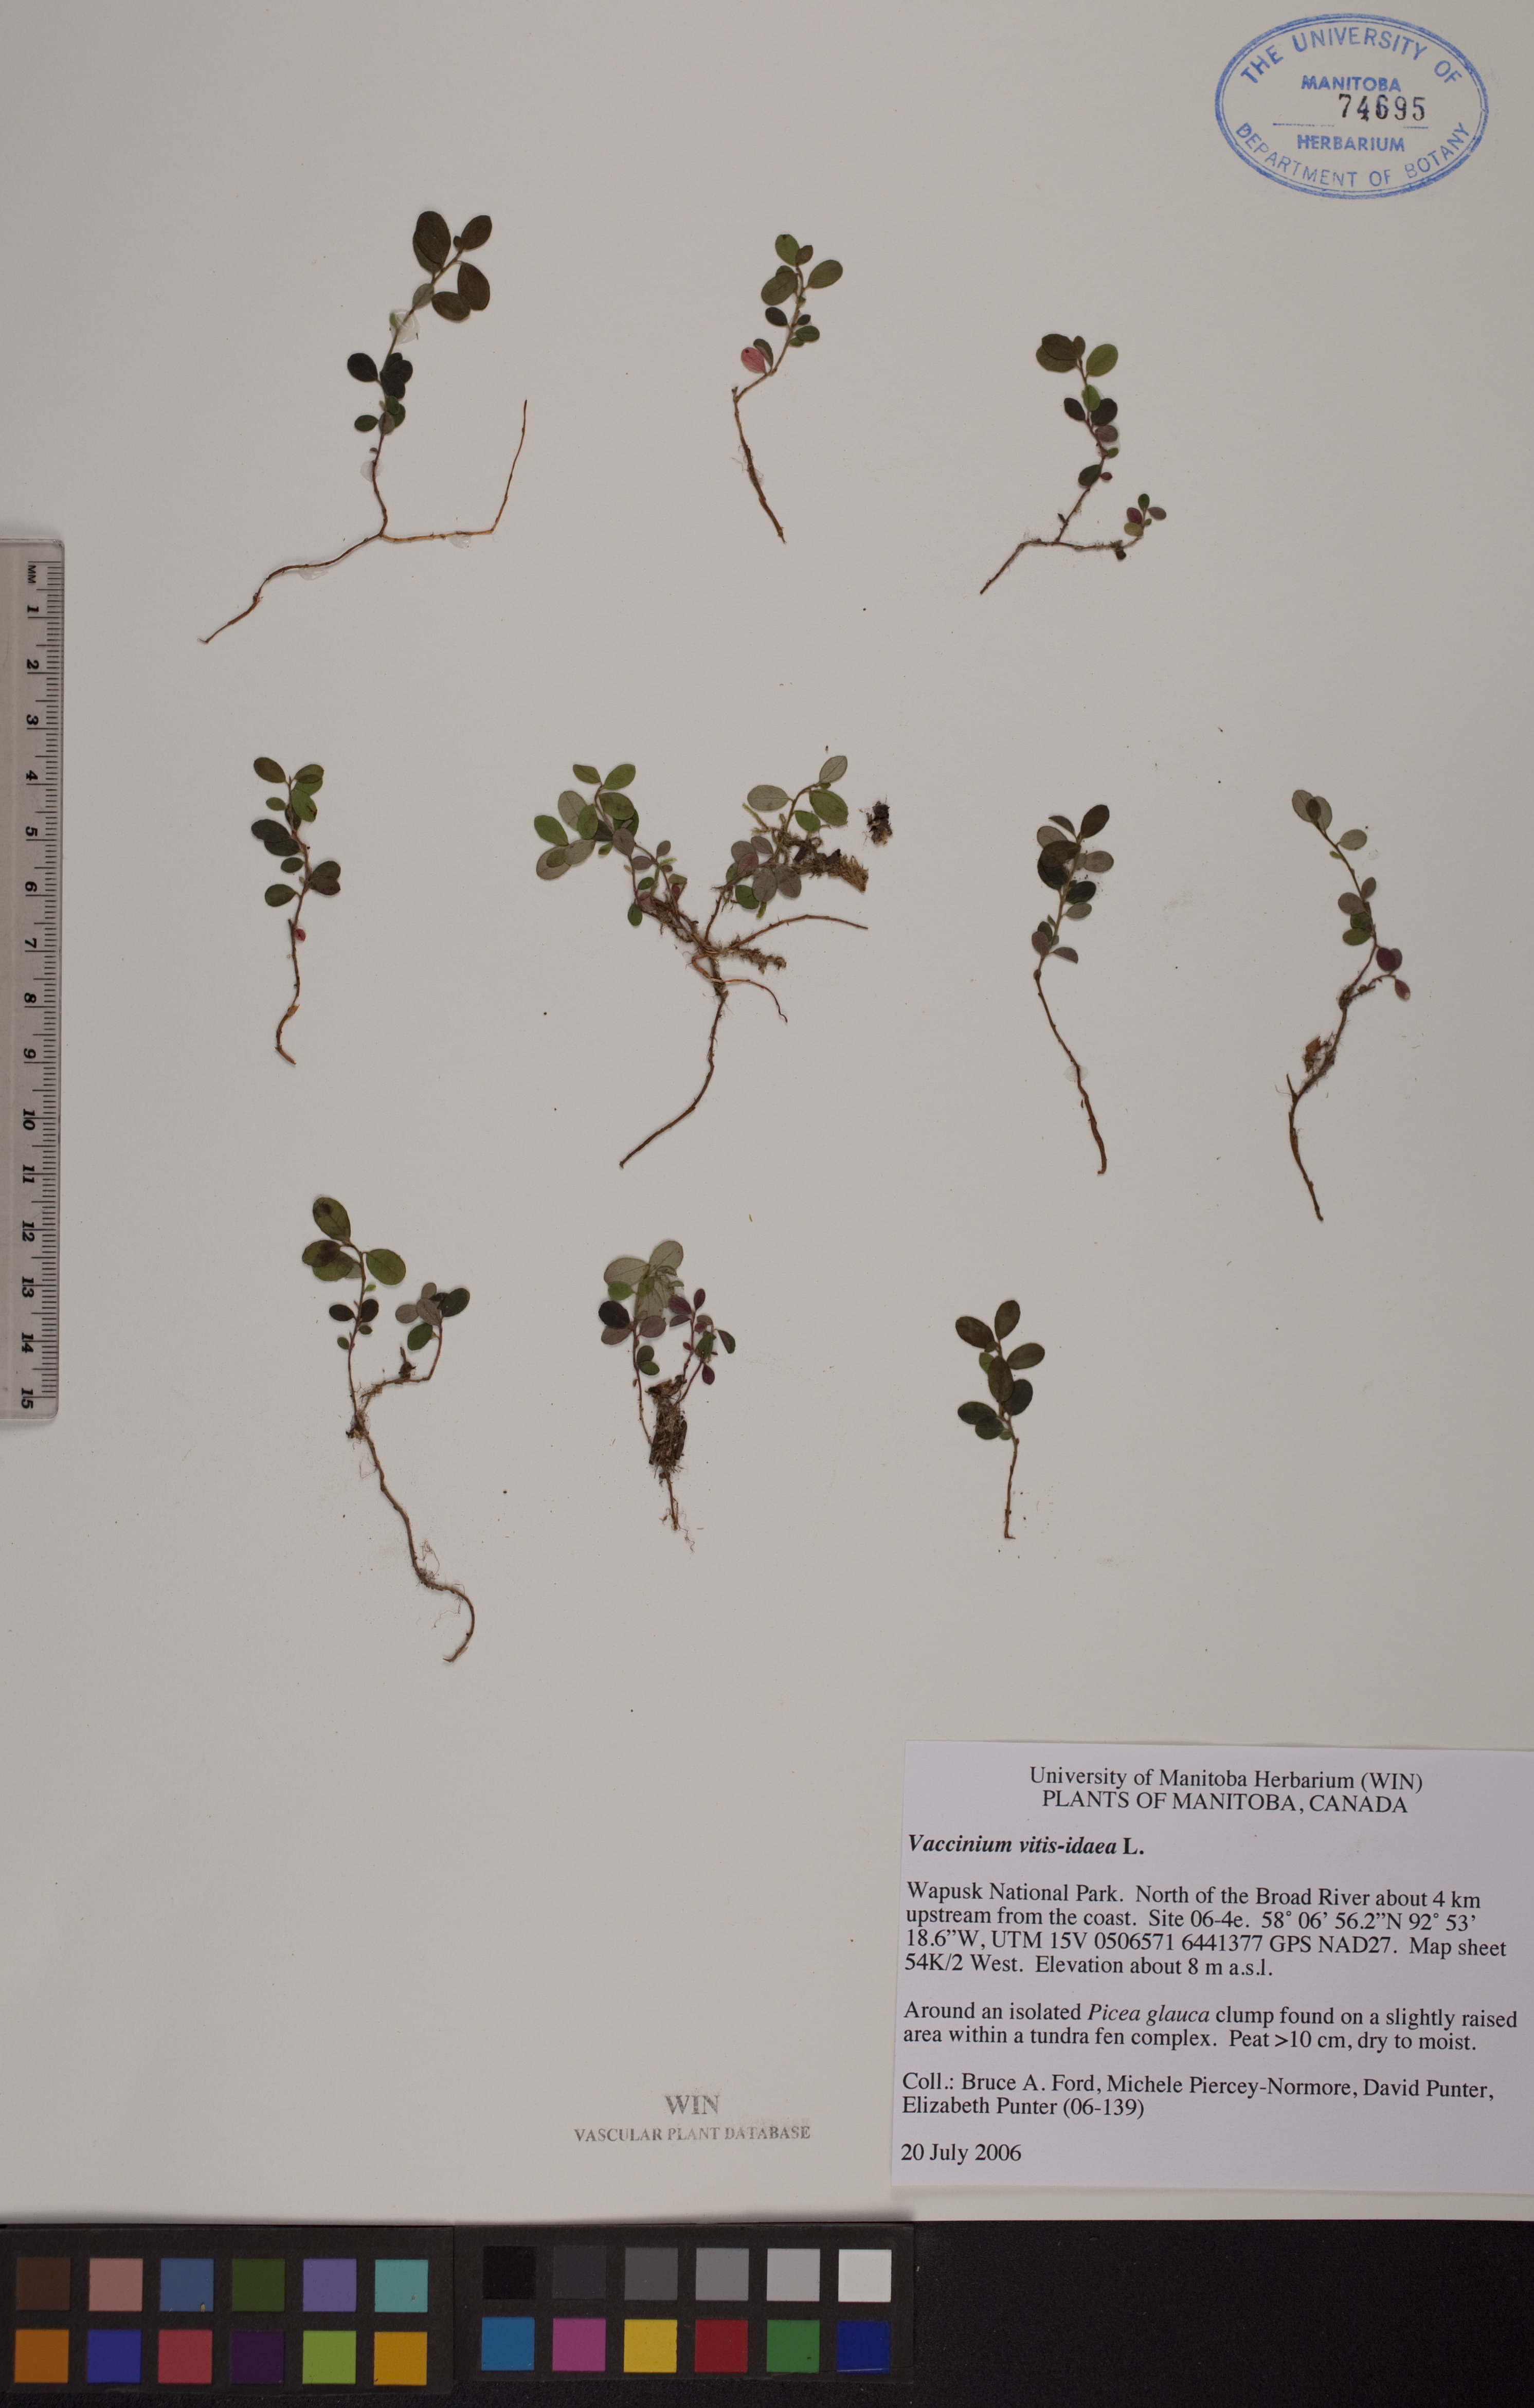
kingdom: Plantae
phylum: Tracheophyta
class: Magnoliopsida
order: Ericales
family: Ericaceae
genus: Vaccinium
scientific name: Vaccinium vitis-idaea
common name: Cowberry
